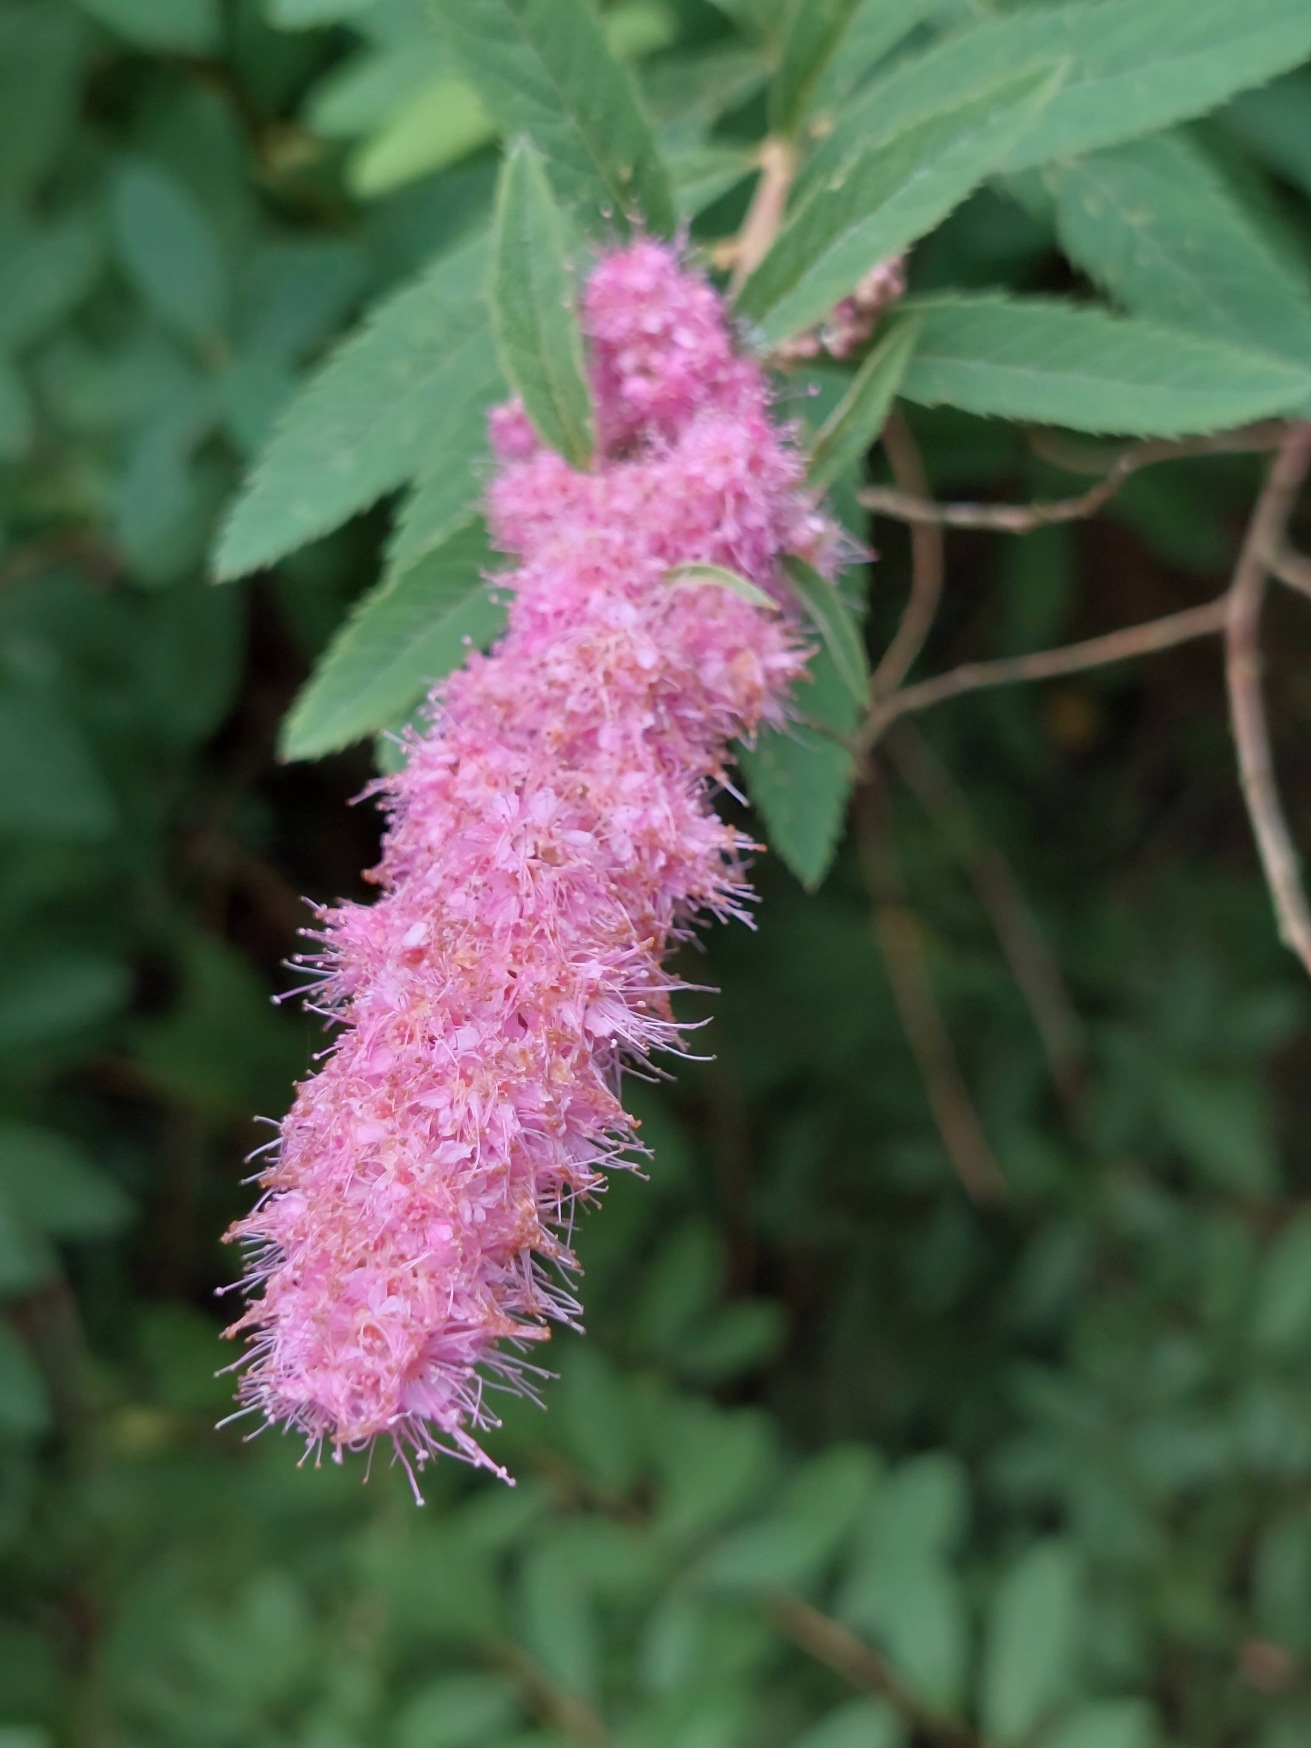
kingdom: Plantae
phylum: Tracheophyta
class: Magnoliopsida
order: Rosales
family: Rosaceae
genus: Spiraea
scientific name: Spiraea
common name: Spiræaslægten
